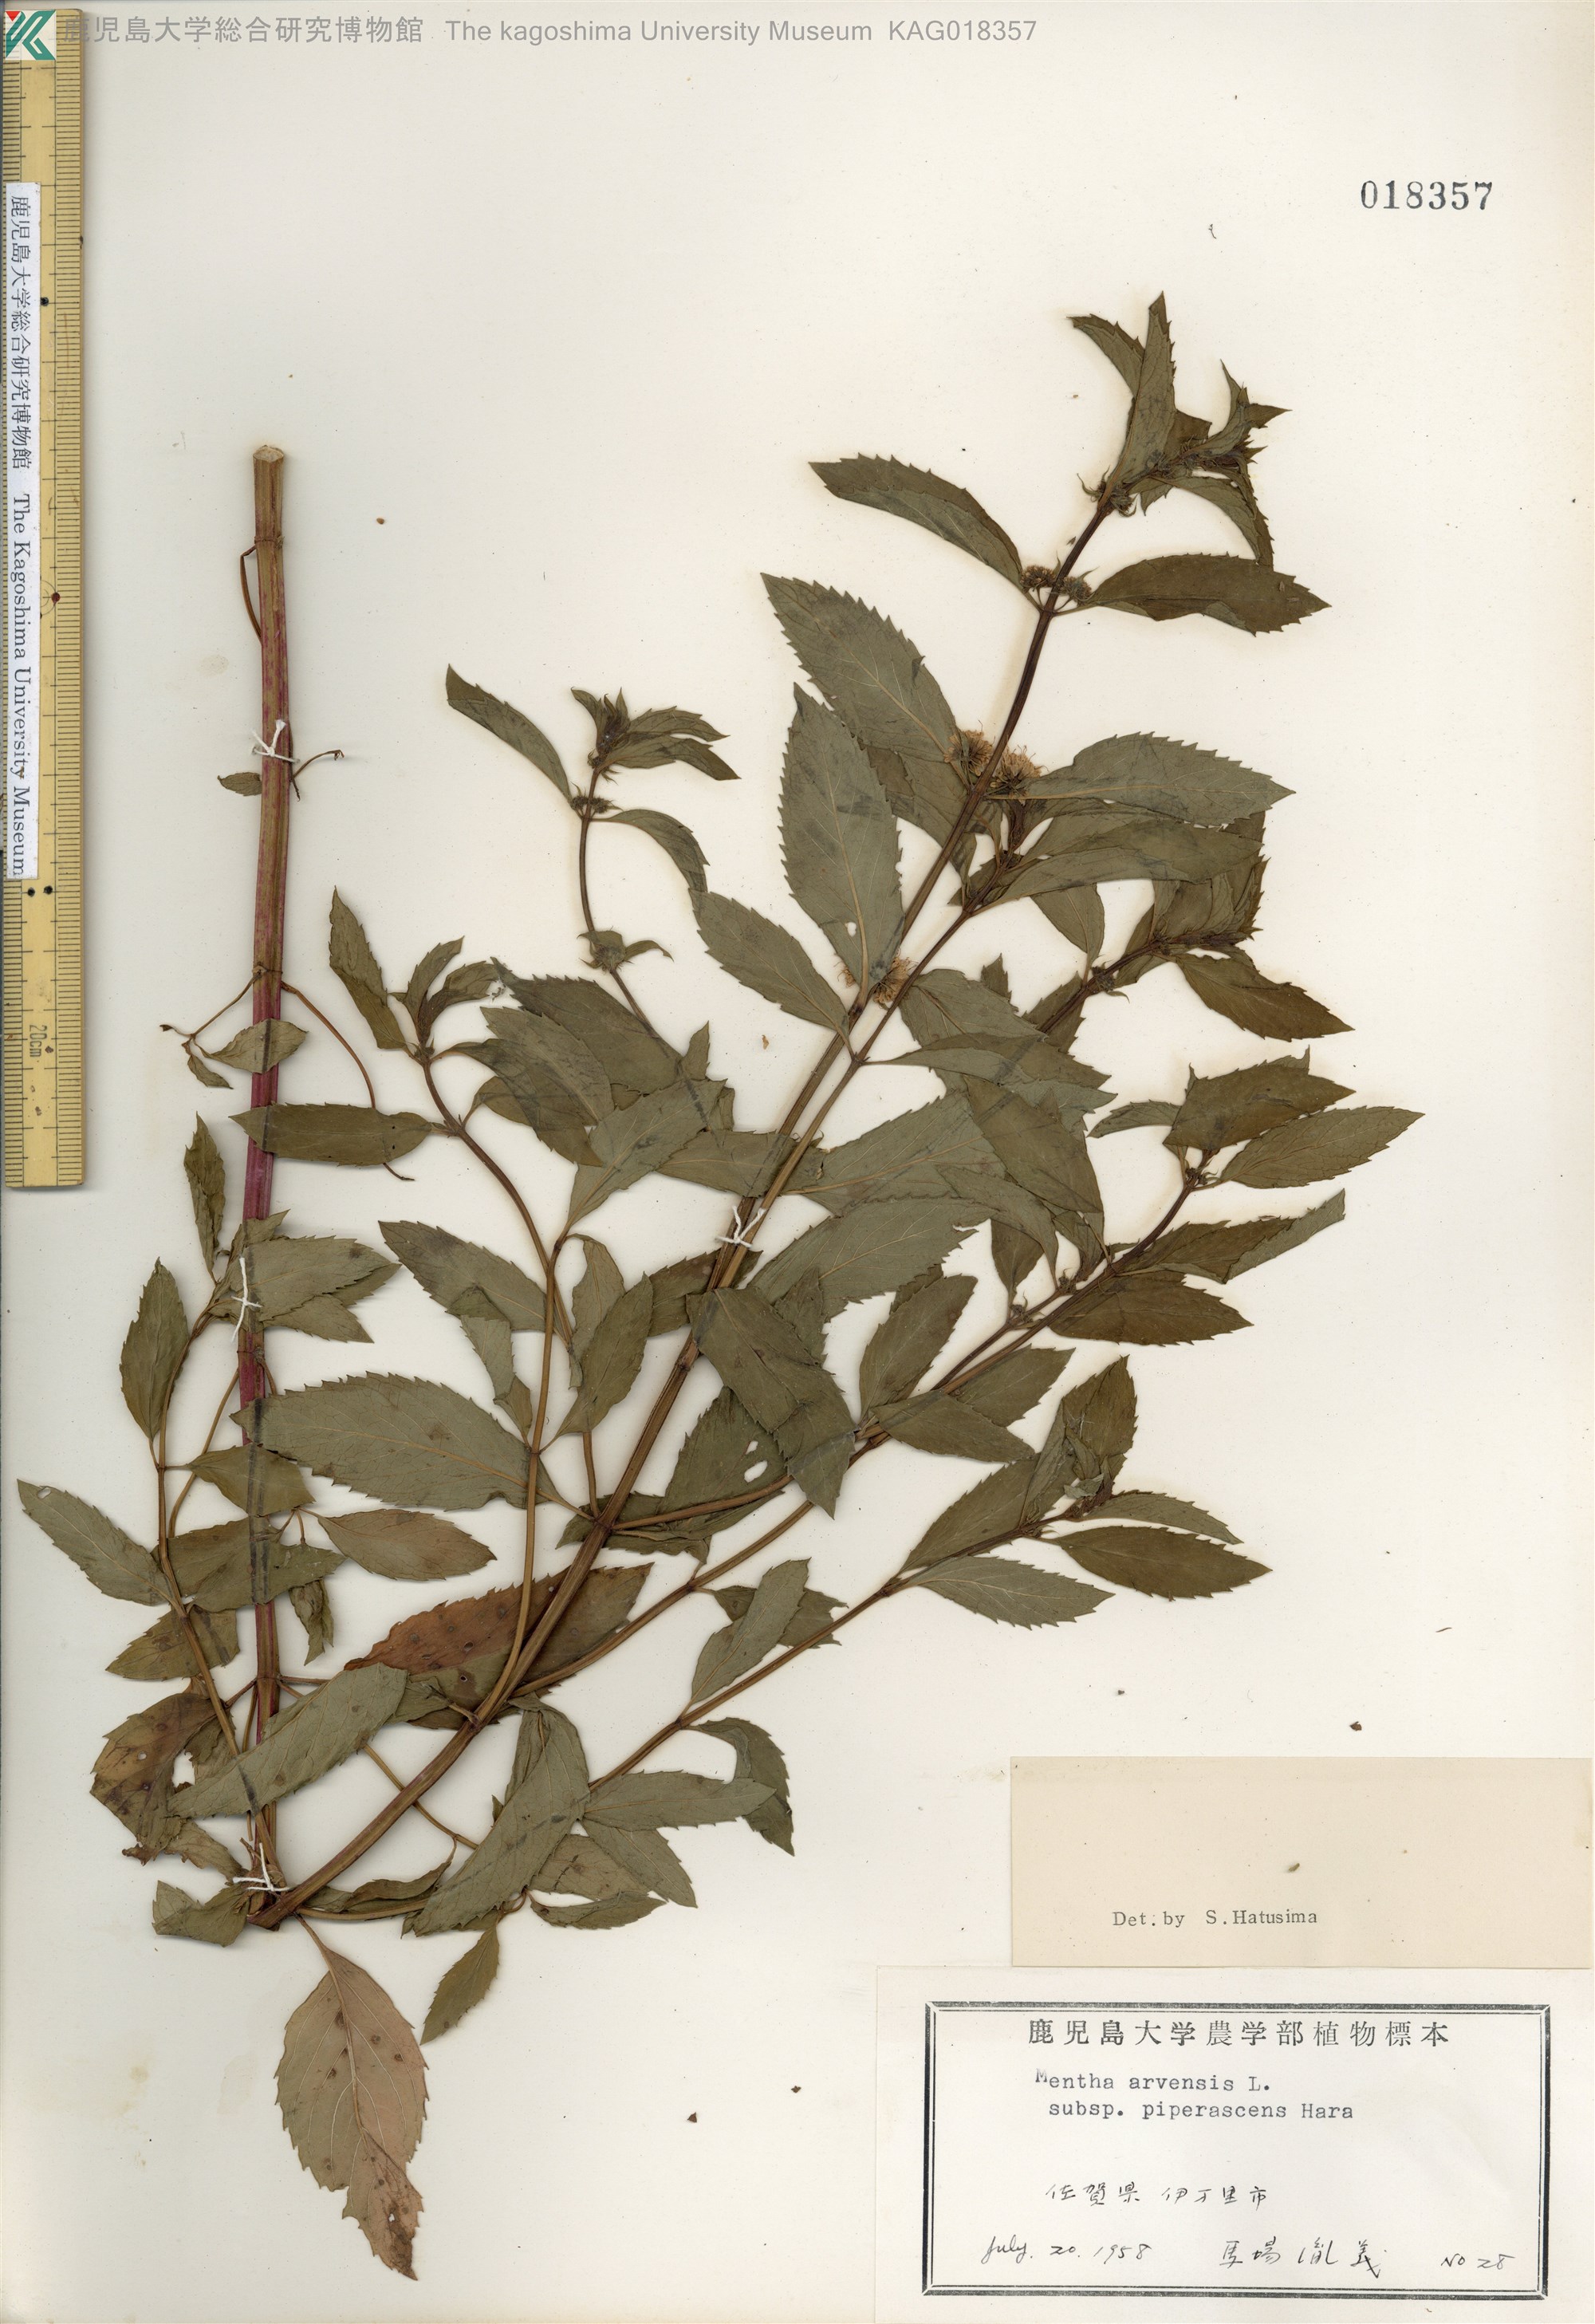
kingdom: Plantae
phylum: Tracheophyta
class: Magnoliopsida
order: Lamiales
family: Lamiaceae
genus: Mentha
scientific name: Mentha canadensis
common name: ハッカ
